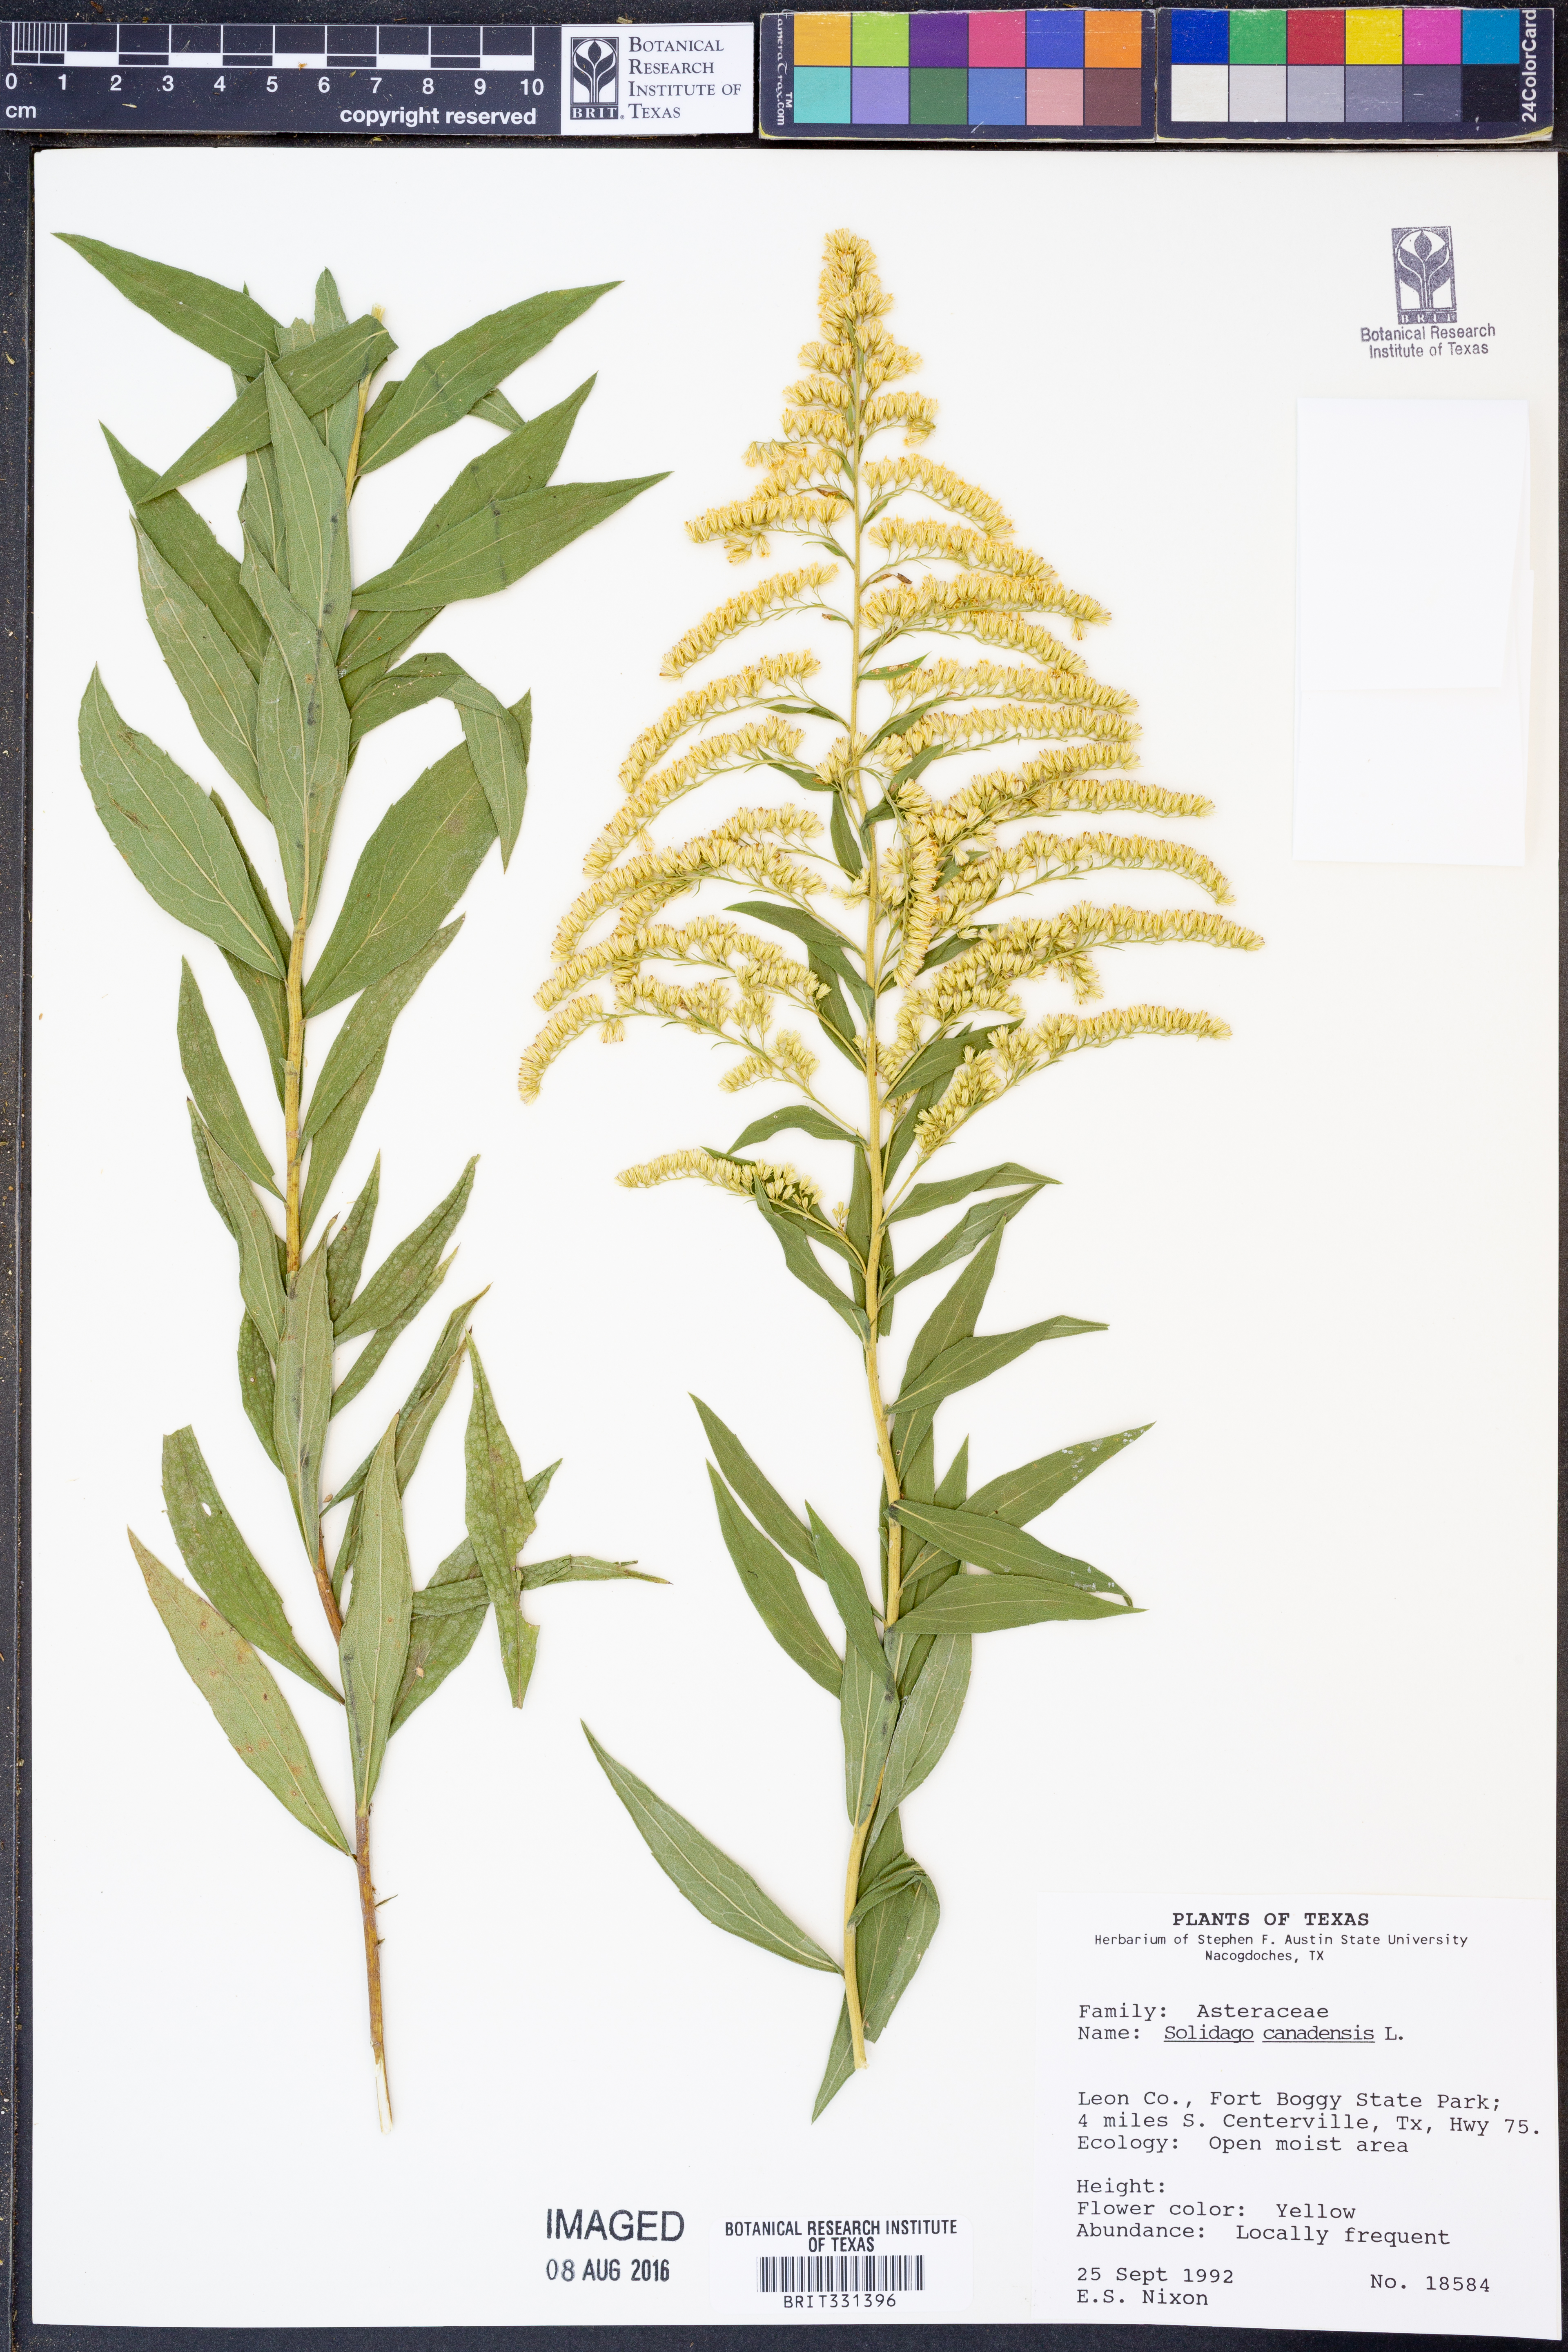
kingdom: Plantae
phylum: Tracheophyta
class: Magnoliopsida
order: Asterales
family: Asteraceae
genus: Solidago
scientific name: Solidago canadensis
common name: Canada goldenrod
